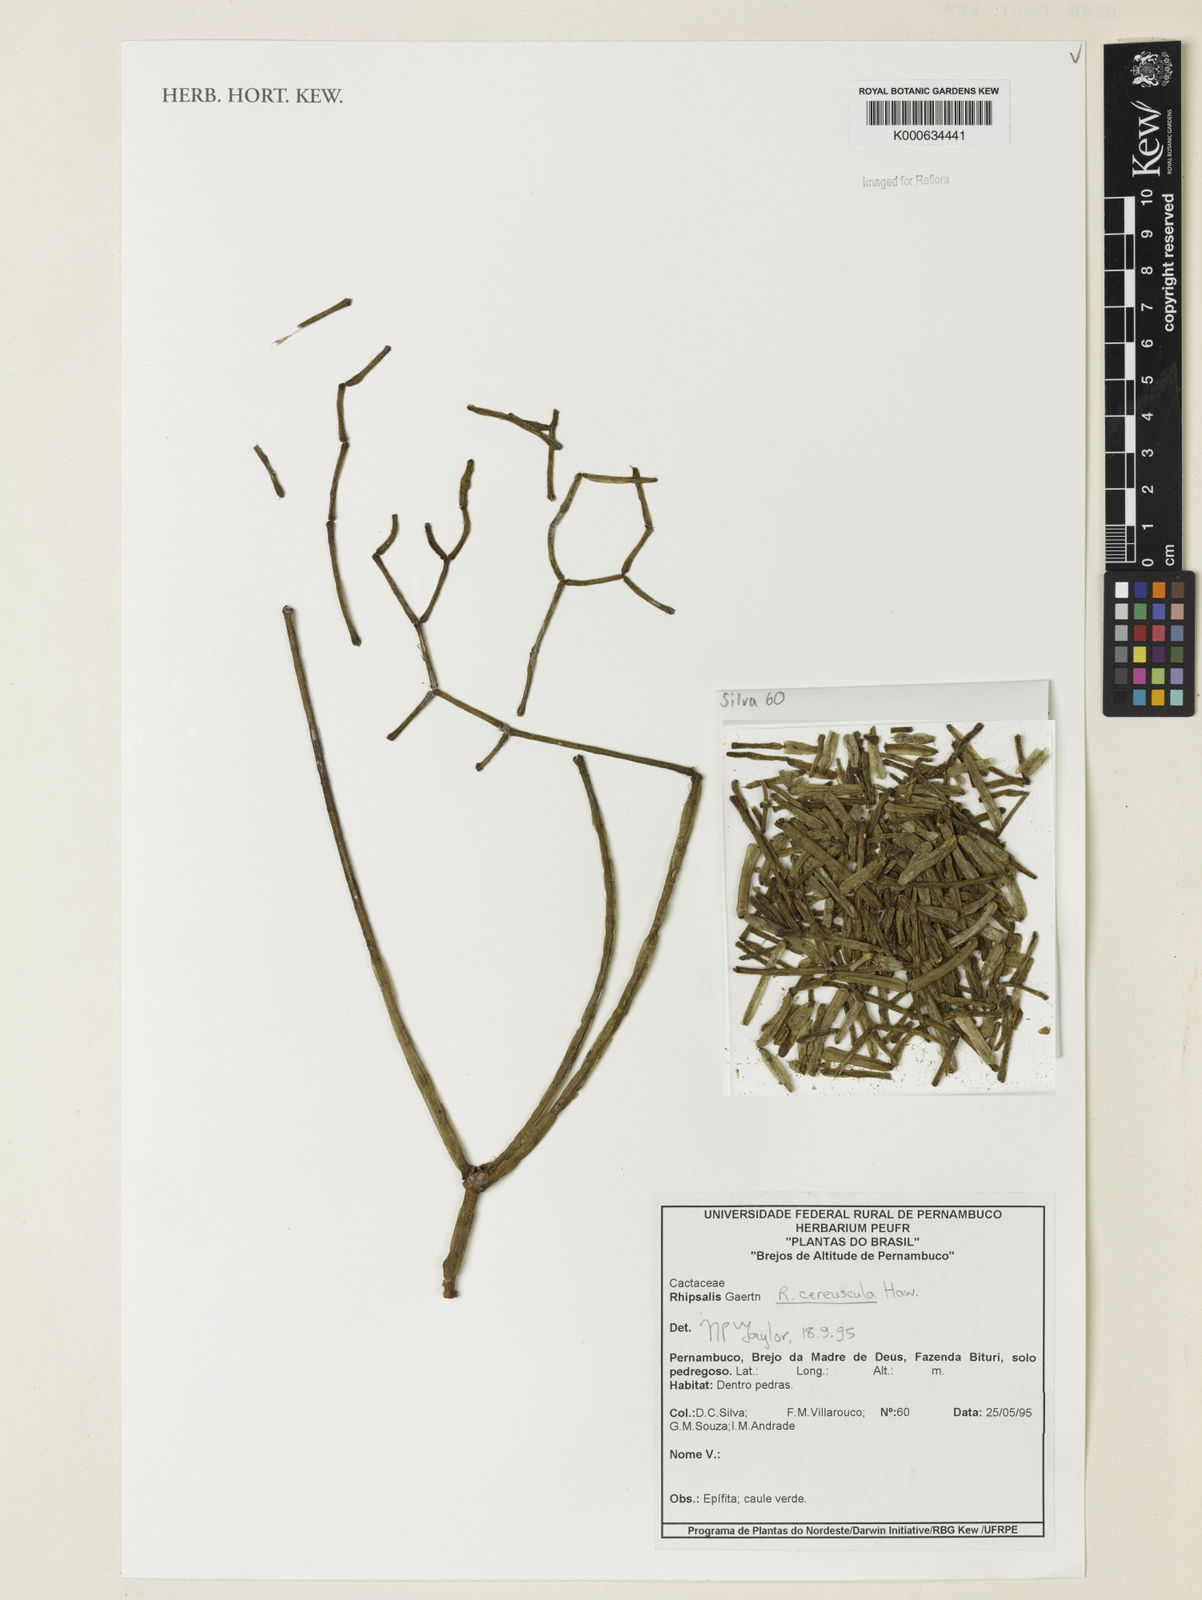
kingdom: Plantae
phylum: Tracheophyta
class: Magnoliopsida
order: Caryophyllales
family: Cactaceae
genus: Rhipsalis
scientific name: Rhipsalis cereuscula
